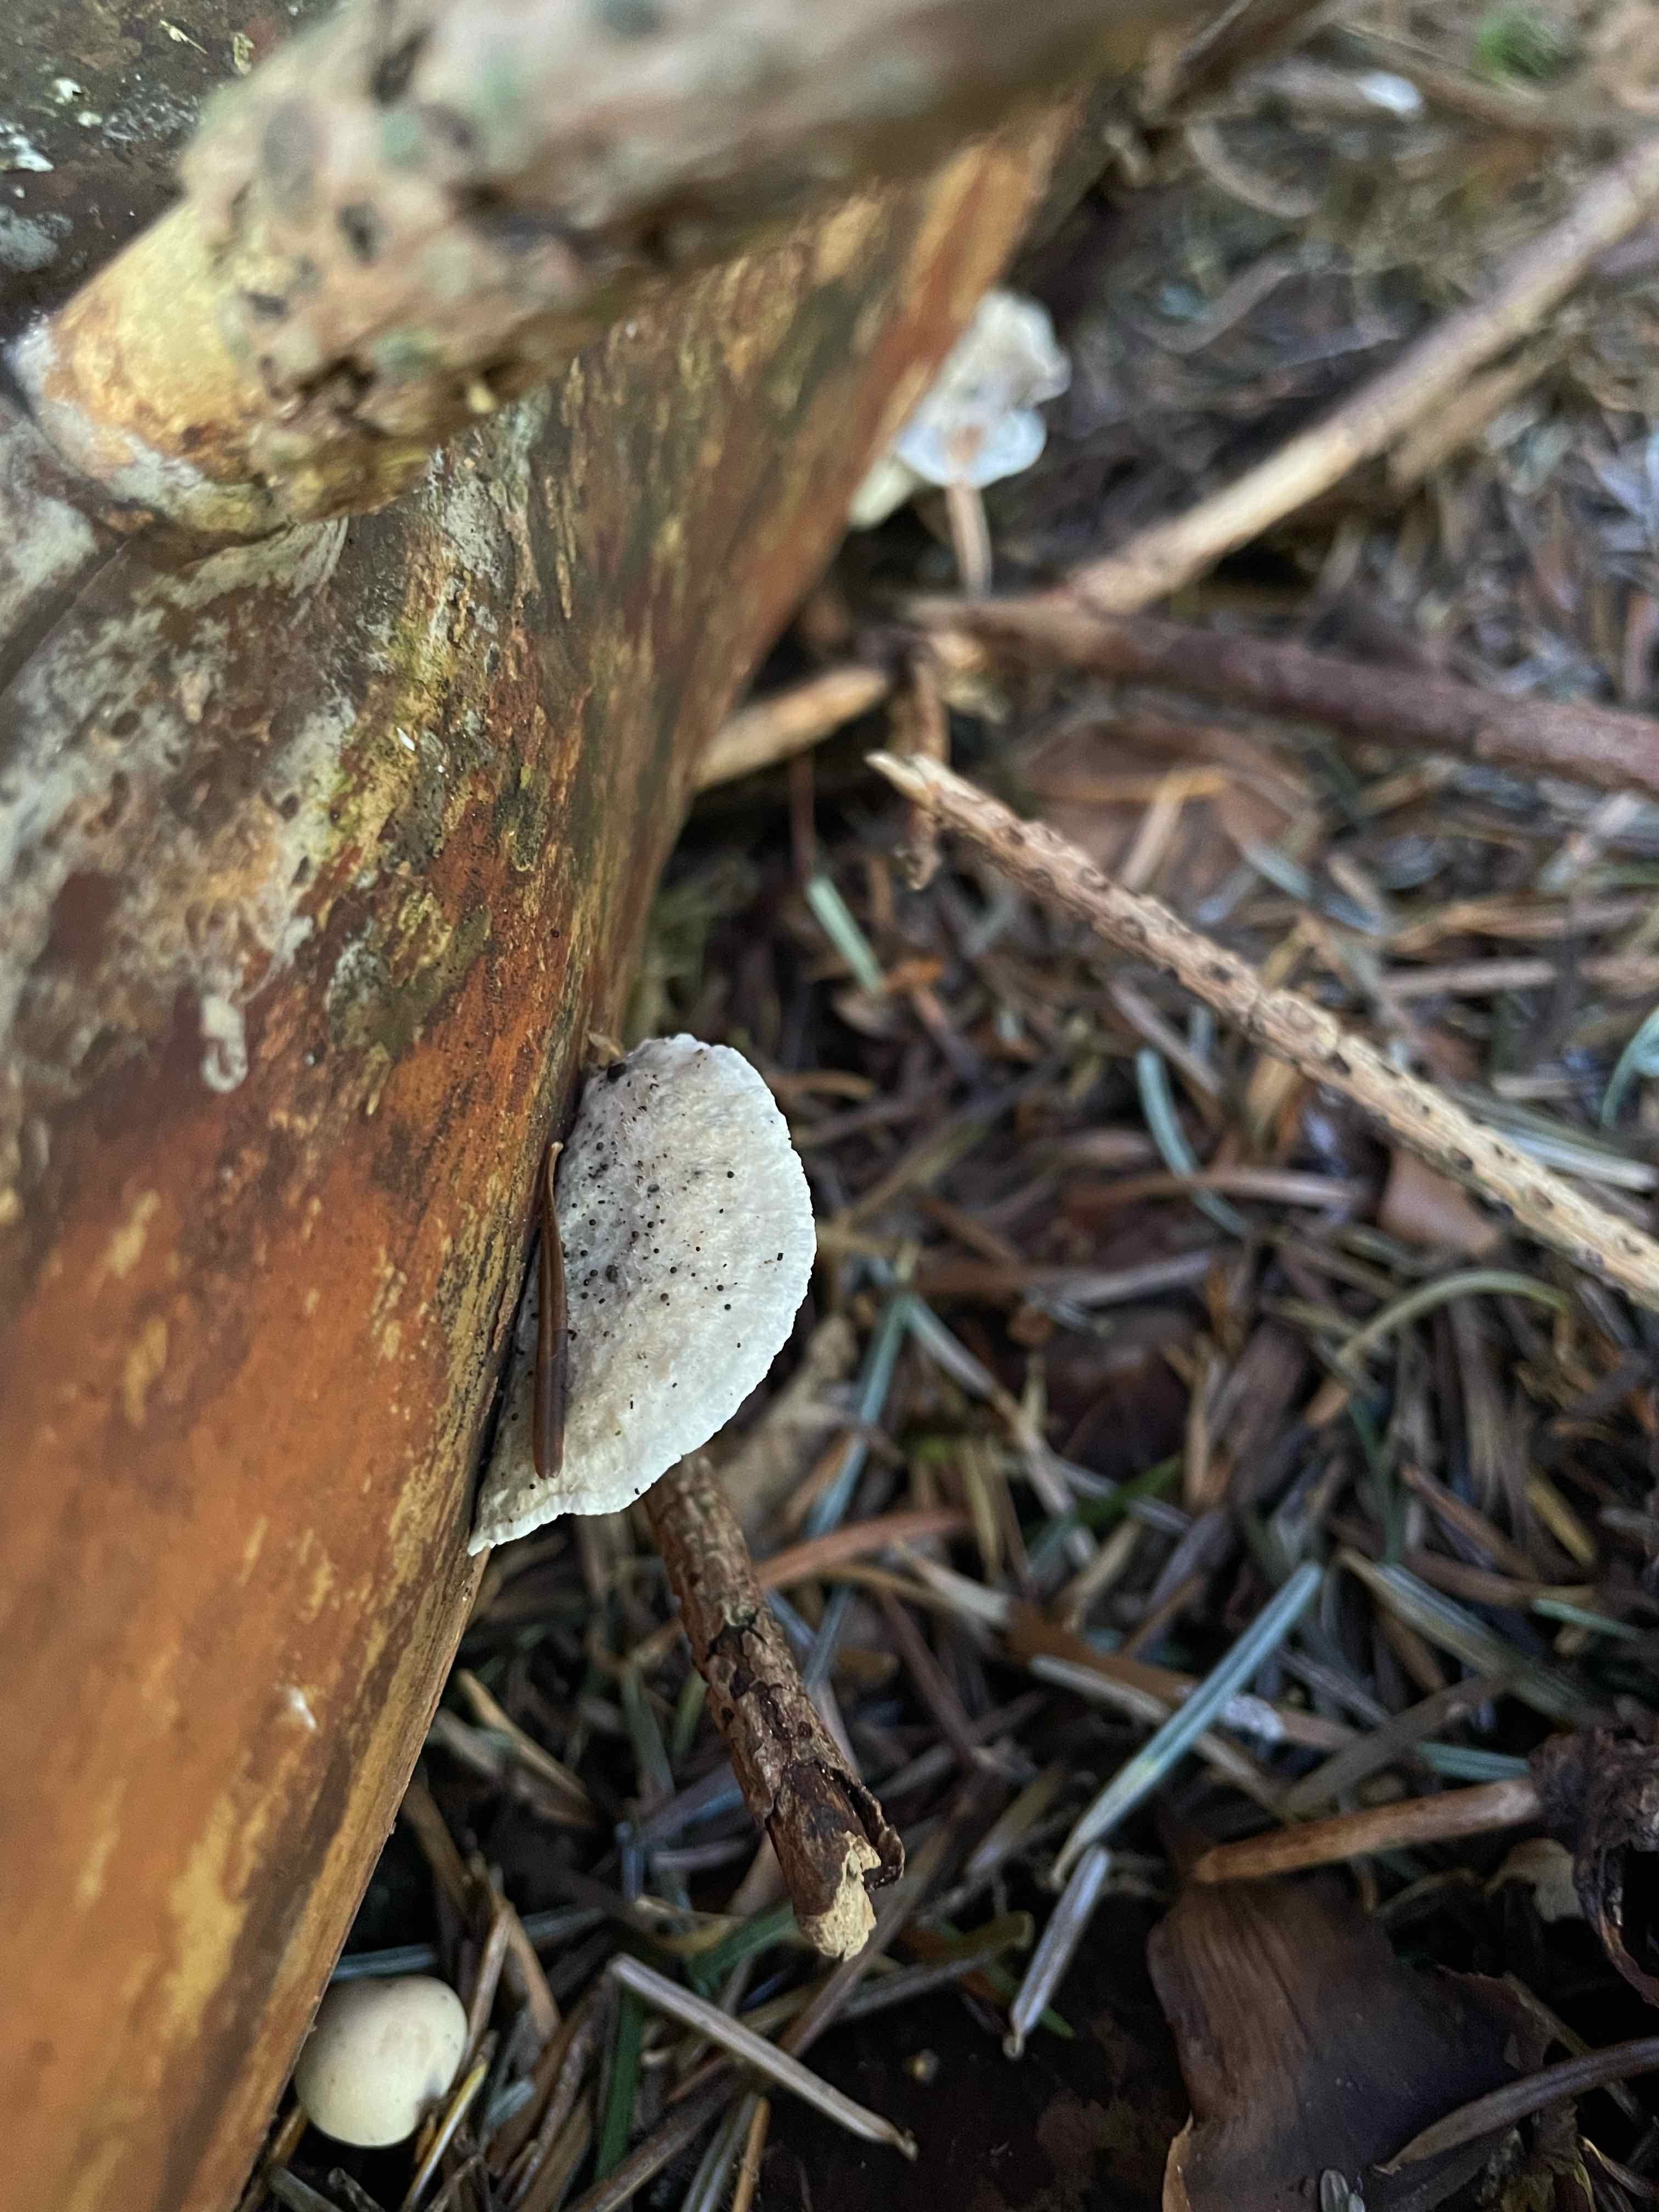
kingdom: Fungi
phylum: Basidiomycota
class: Agaricomycetes
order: Polyporales
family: Polyporaceae
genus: Cyanosporus
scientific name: Cyanosporus caesius
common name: blålig kødporesvamp
